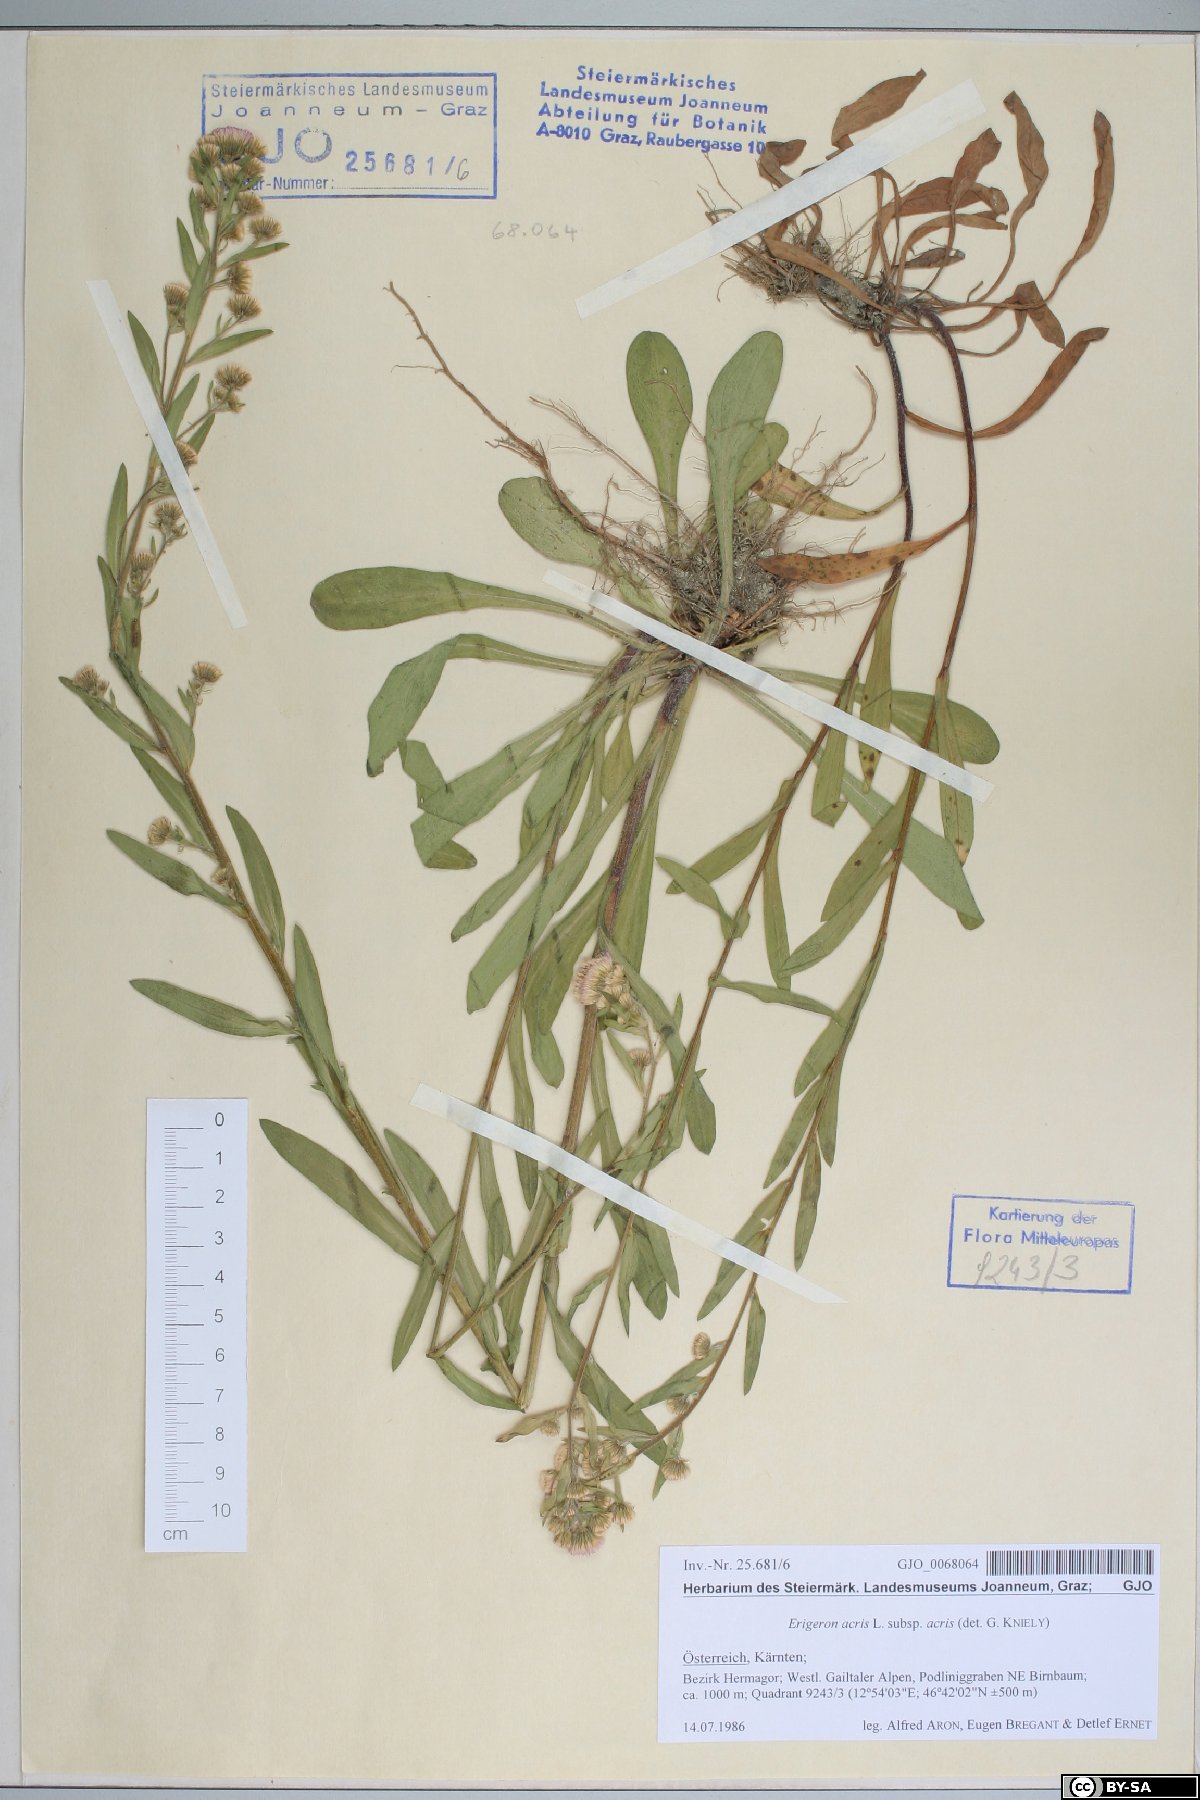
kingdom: Plantae
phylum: Tracheophyta
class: Magnoliopsida
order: Asterales
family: Asteraceae
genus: Erigeron
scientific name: Erigeron acris
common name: Blue fleabane
